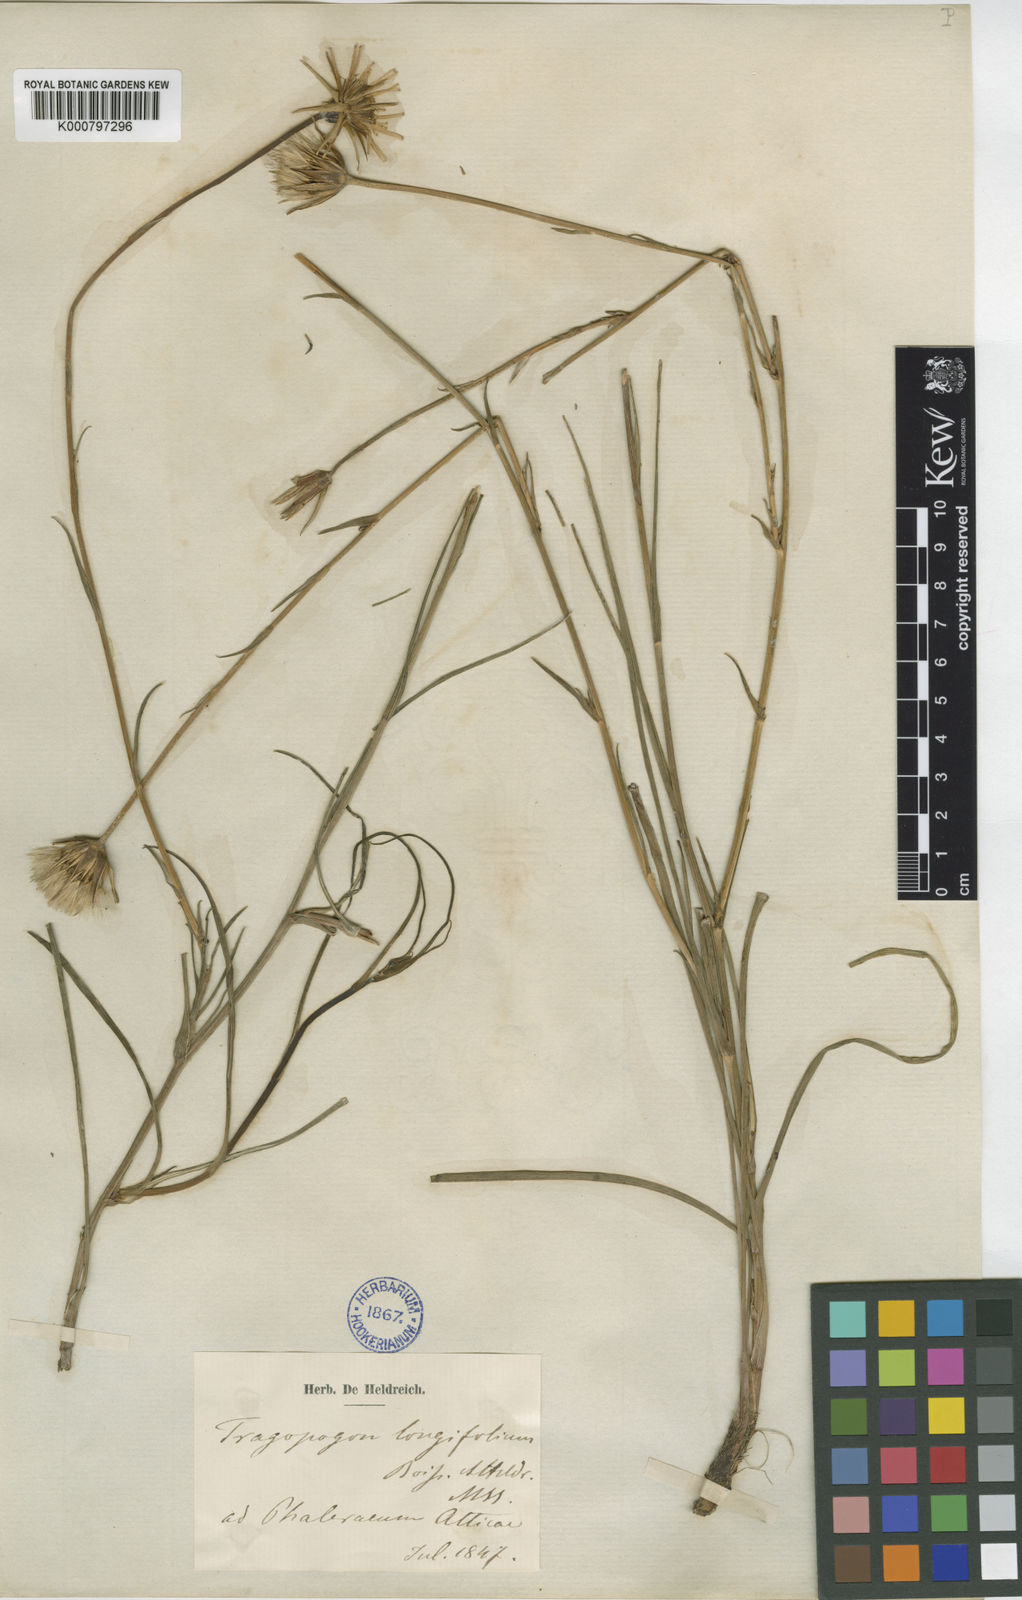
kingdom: Plantae
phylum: Tracheophyta
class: Magnoliopsida
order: Asterales
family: Asteraceae
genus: Tragopogon
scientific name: Tragopogon
